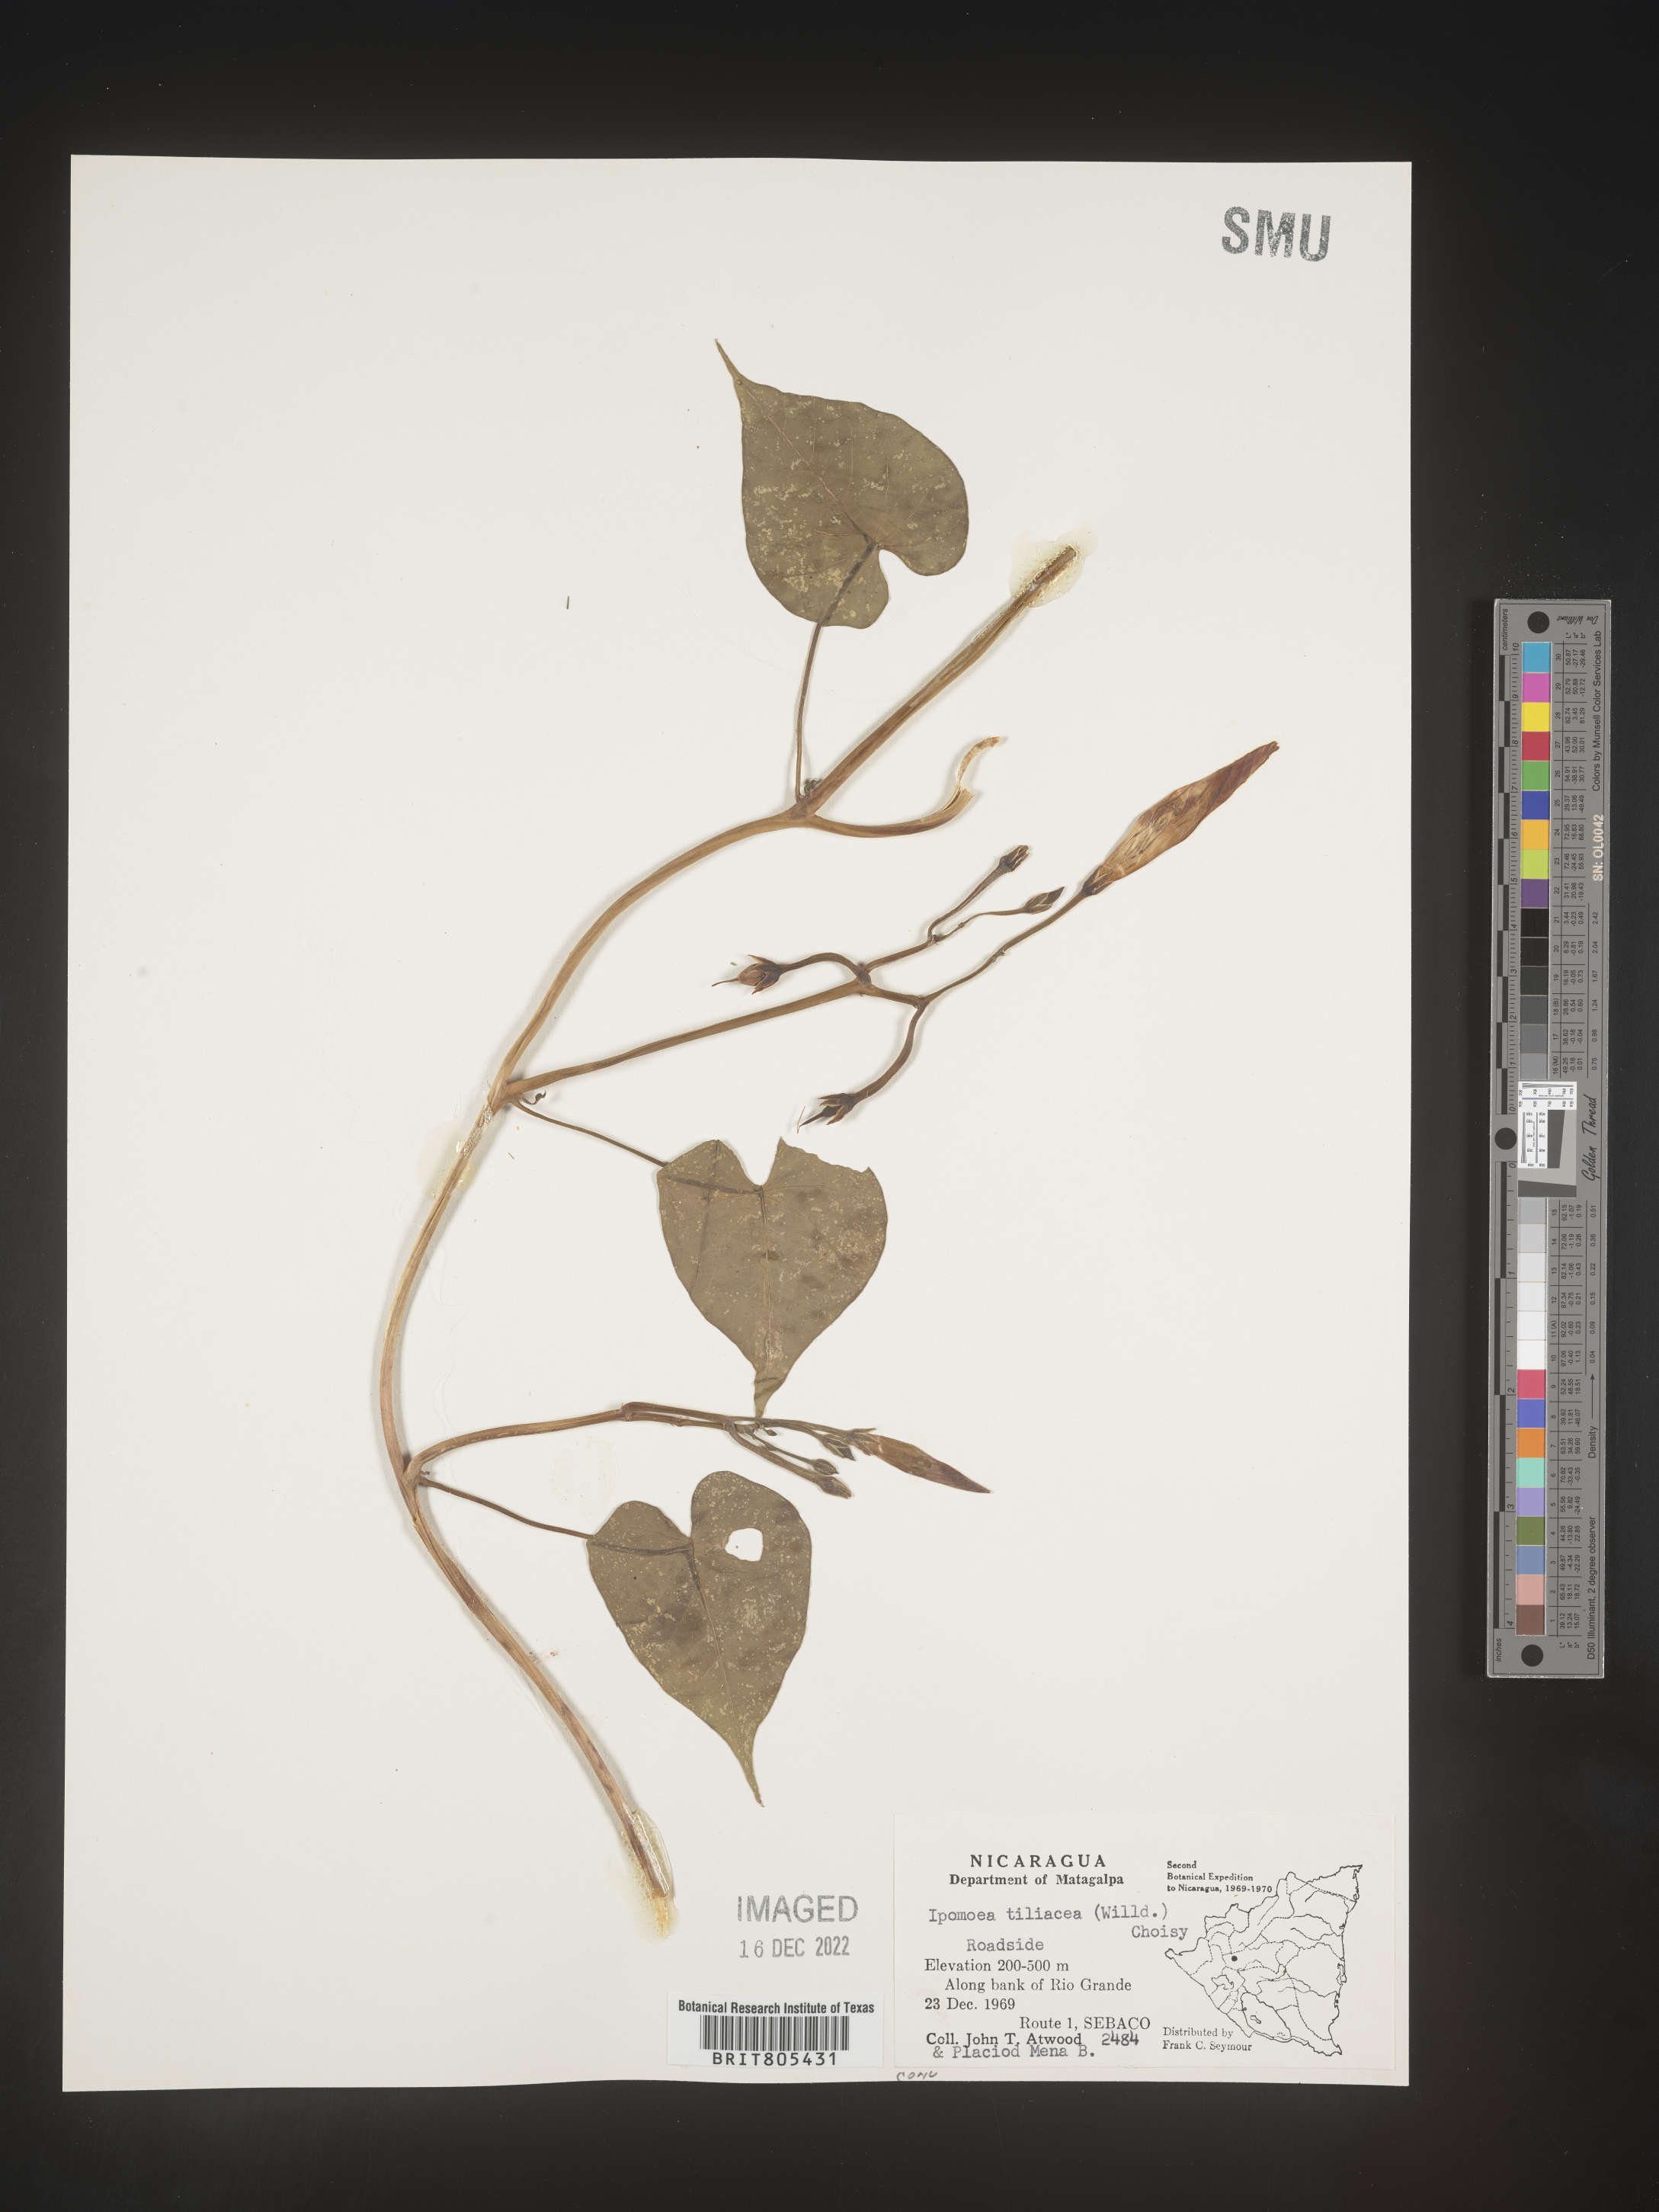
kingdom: Plantae
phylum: Tracheophyta
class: Magnoliopsida
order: Solanales
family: Convolvulaceae
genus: Ipomoea
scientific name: Ipomoea
